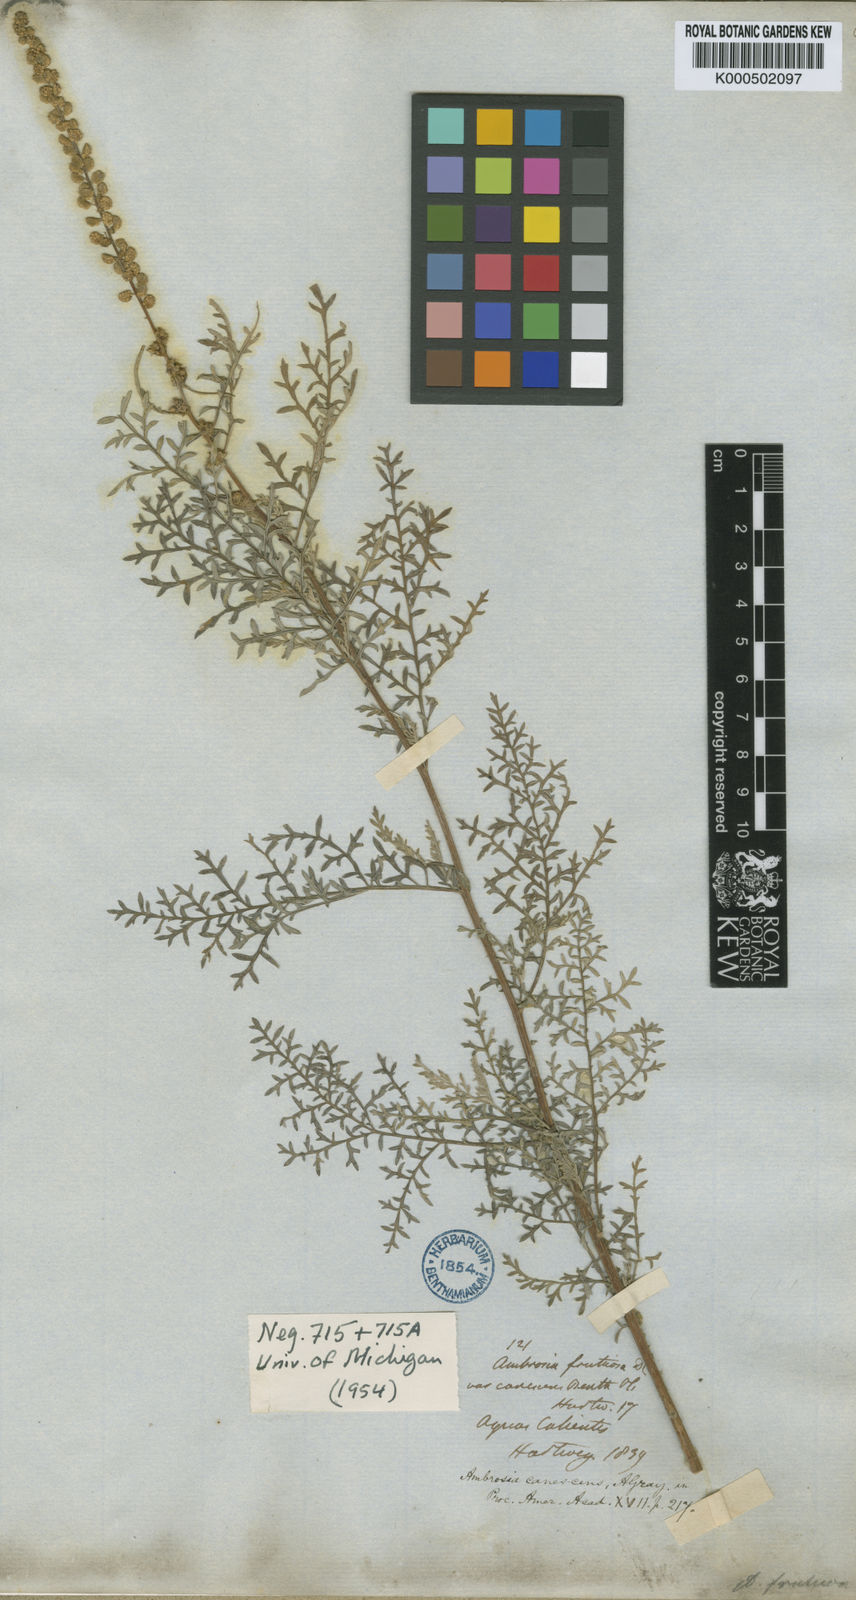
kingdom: Plantae
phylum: Tracheophyta
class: Magnoliopsida
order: Asterales
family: Asteraceae
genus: Ambrosia
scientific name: Ambrosia canescens
